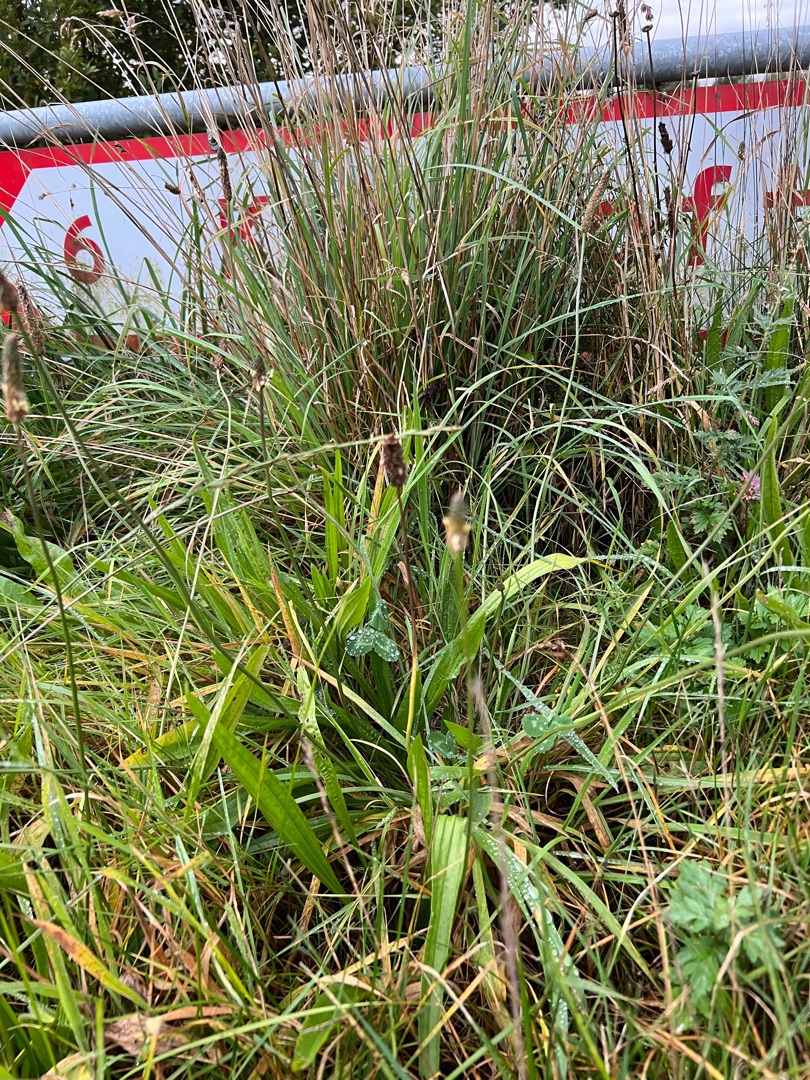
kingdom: Plantae
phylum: Tracheophyta
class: Magnoliopsida
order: Lamiales
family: Plantaginaceae
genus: Plantago
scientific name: Plantago lanceolata
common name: Lancet-vejbred
